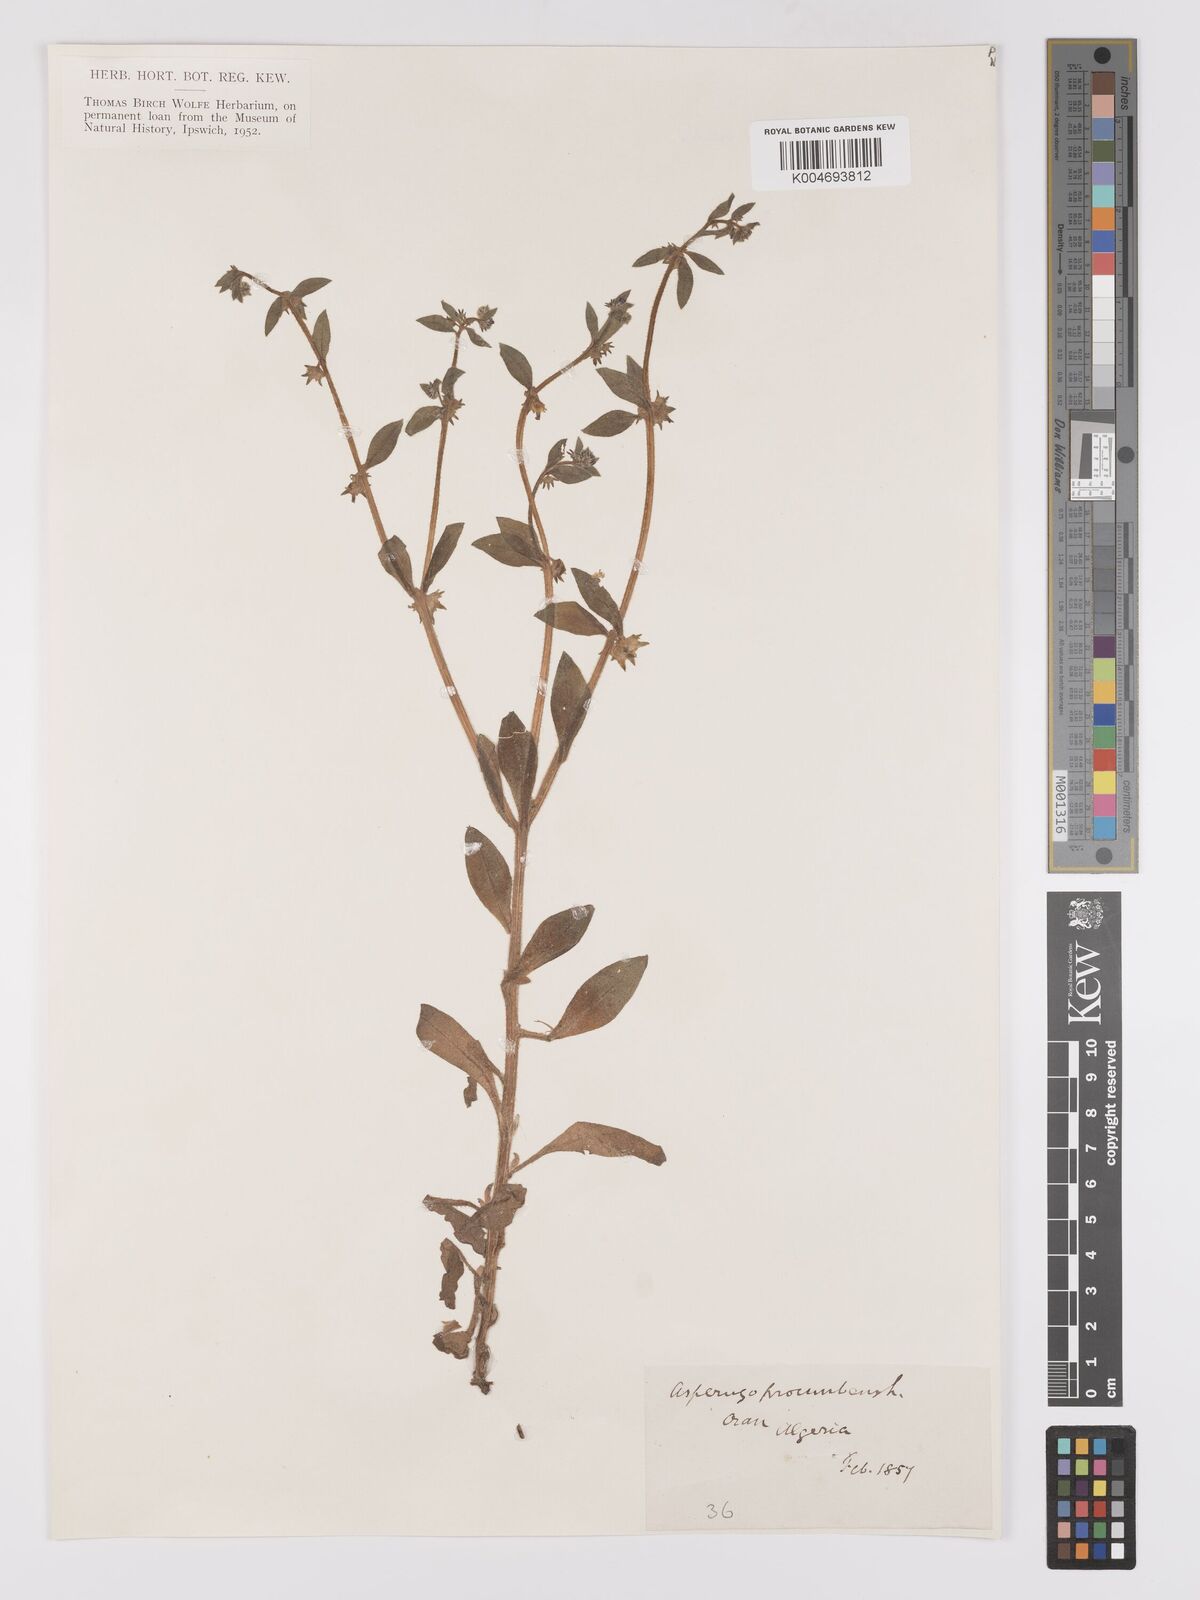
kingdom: Plantae
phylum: Tracheophyta
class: Magnoliopsida
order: Boraginales
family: Boraginaceae
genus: Asperugo
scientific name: Asperugo procumbens
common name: Madwort
